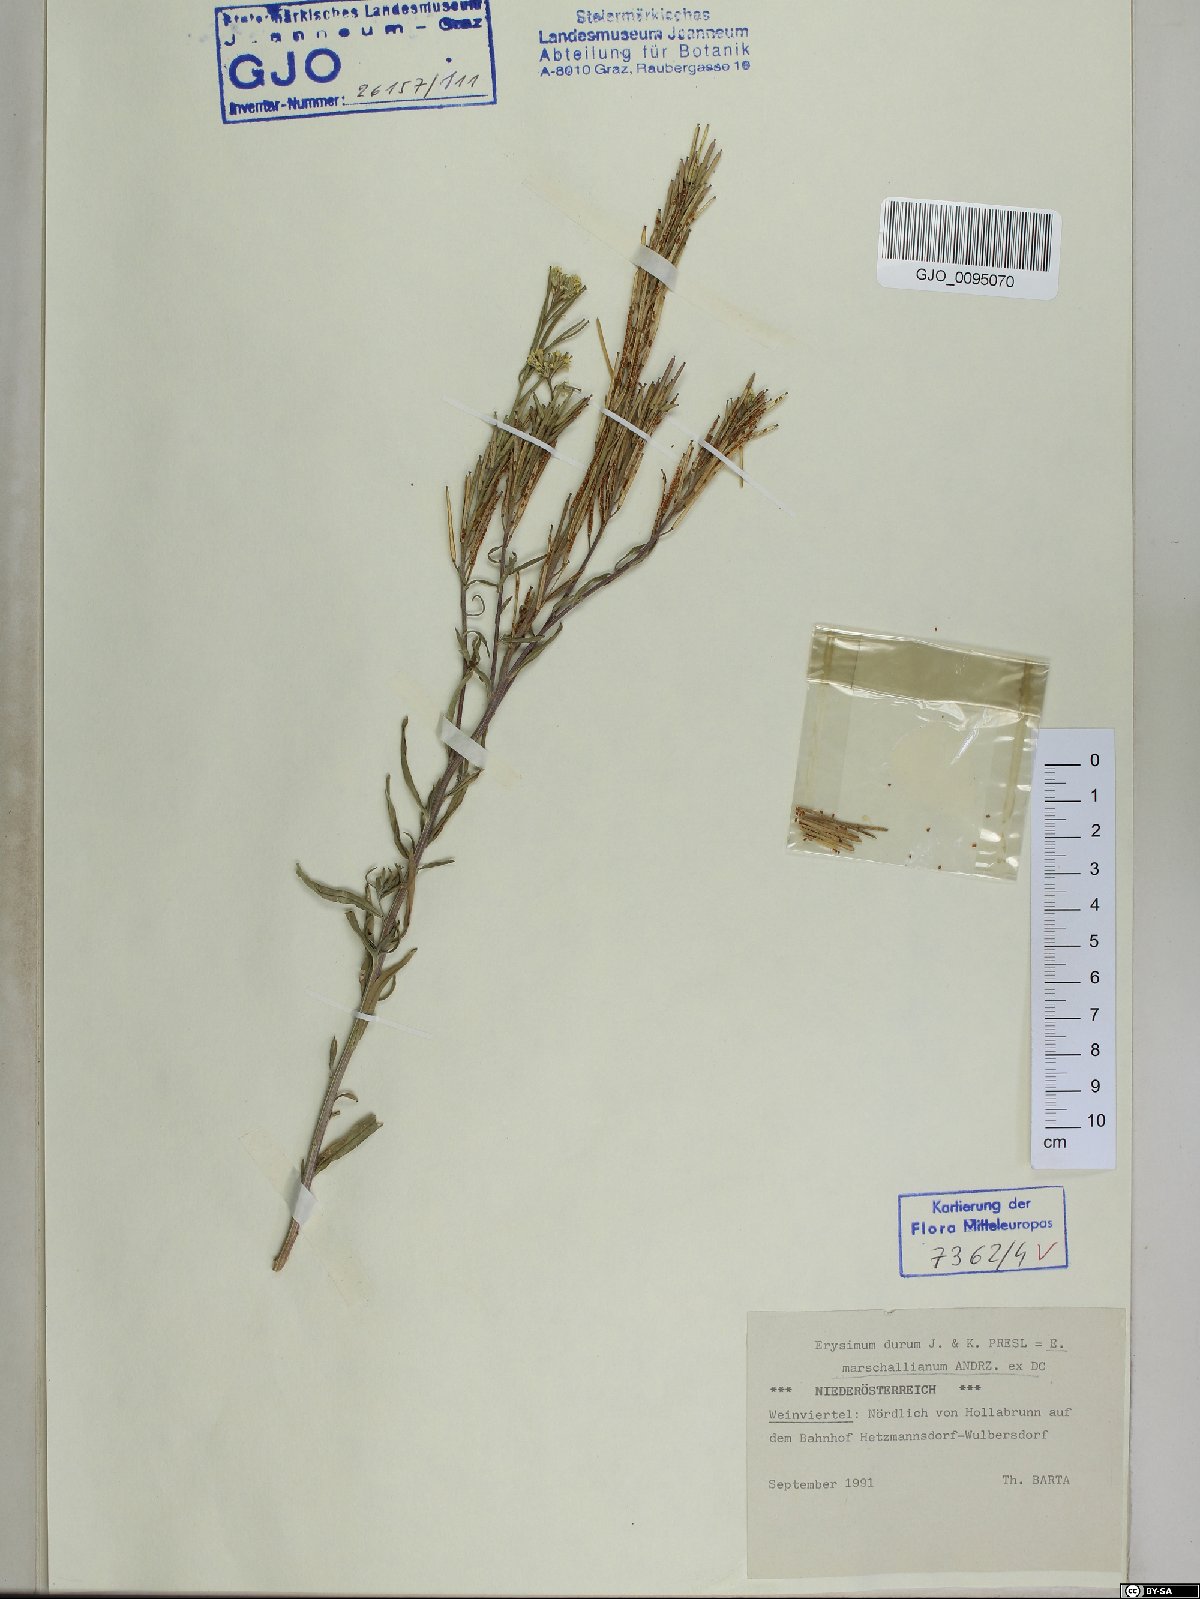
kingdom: Plantae
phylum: Tracheophyta
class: Magnoliopsida
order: Brassicales
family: Brassicaceae
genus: Erysimum
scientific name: Erysimum marschallianum
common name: Hard wallflower
